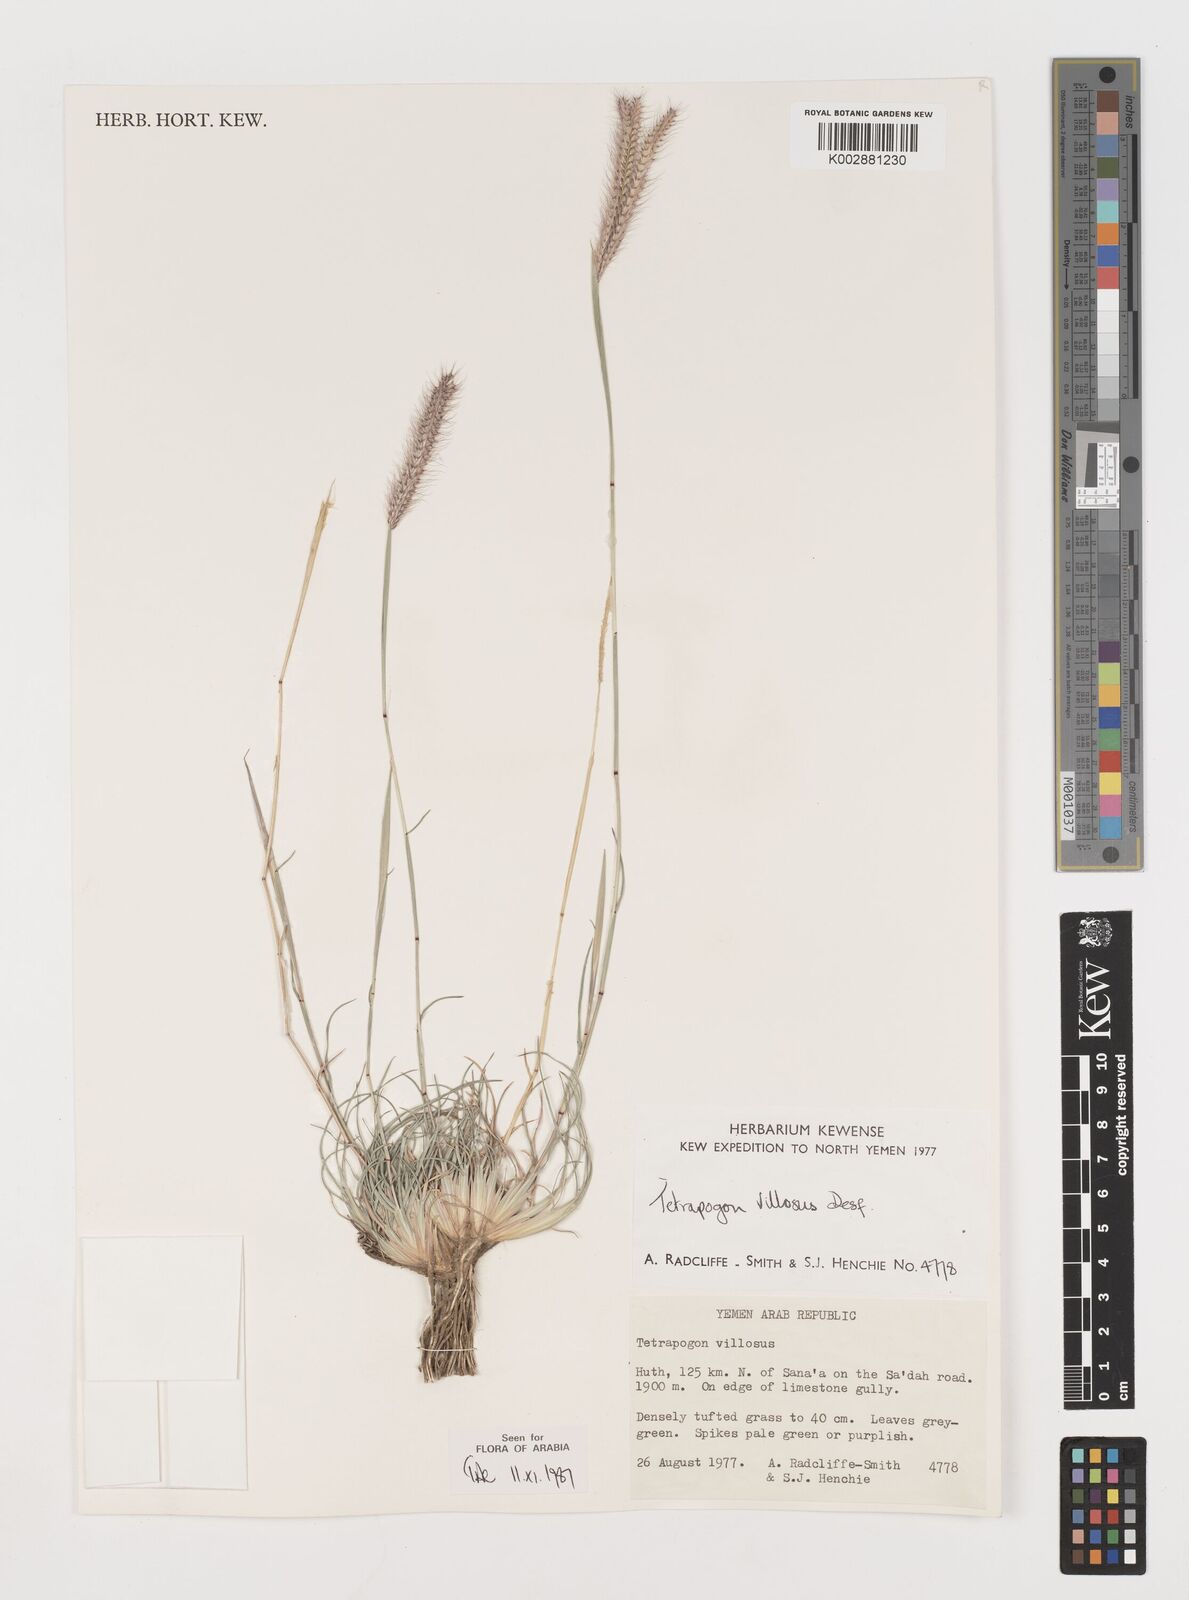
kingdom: Plantae
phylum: Tracheophyta
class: Liliopsida
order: Poales
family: Poaceae
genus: Tetrapogon
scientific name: Tetrapogon villosus
